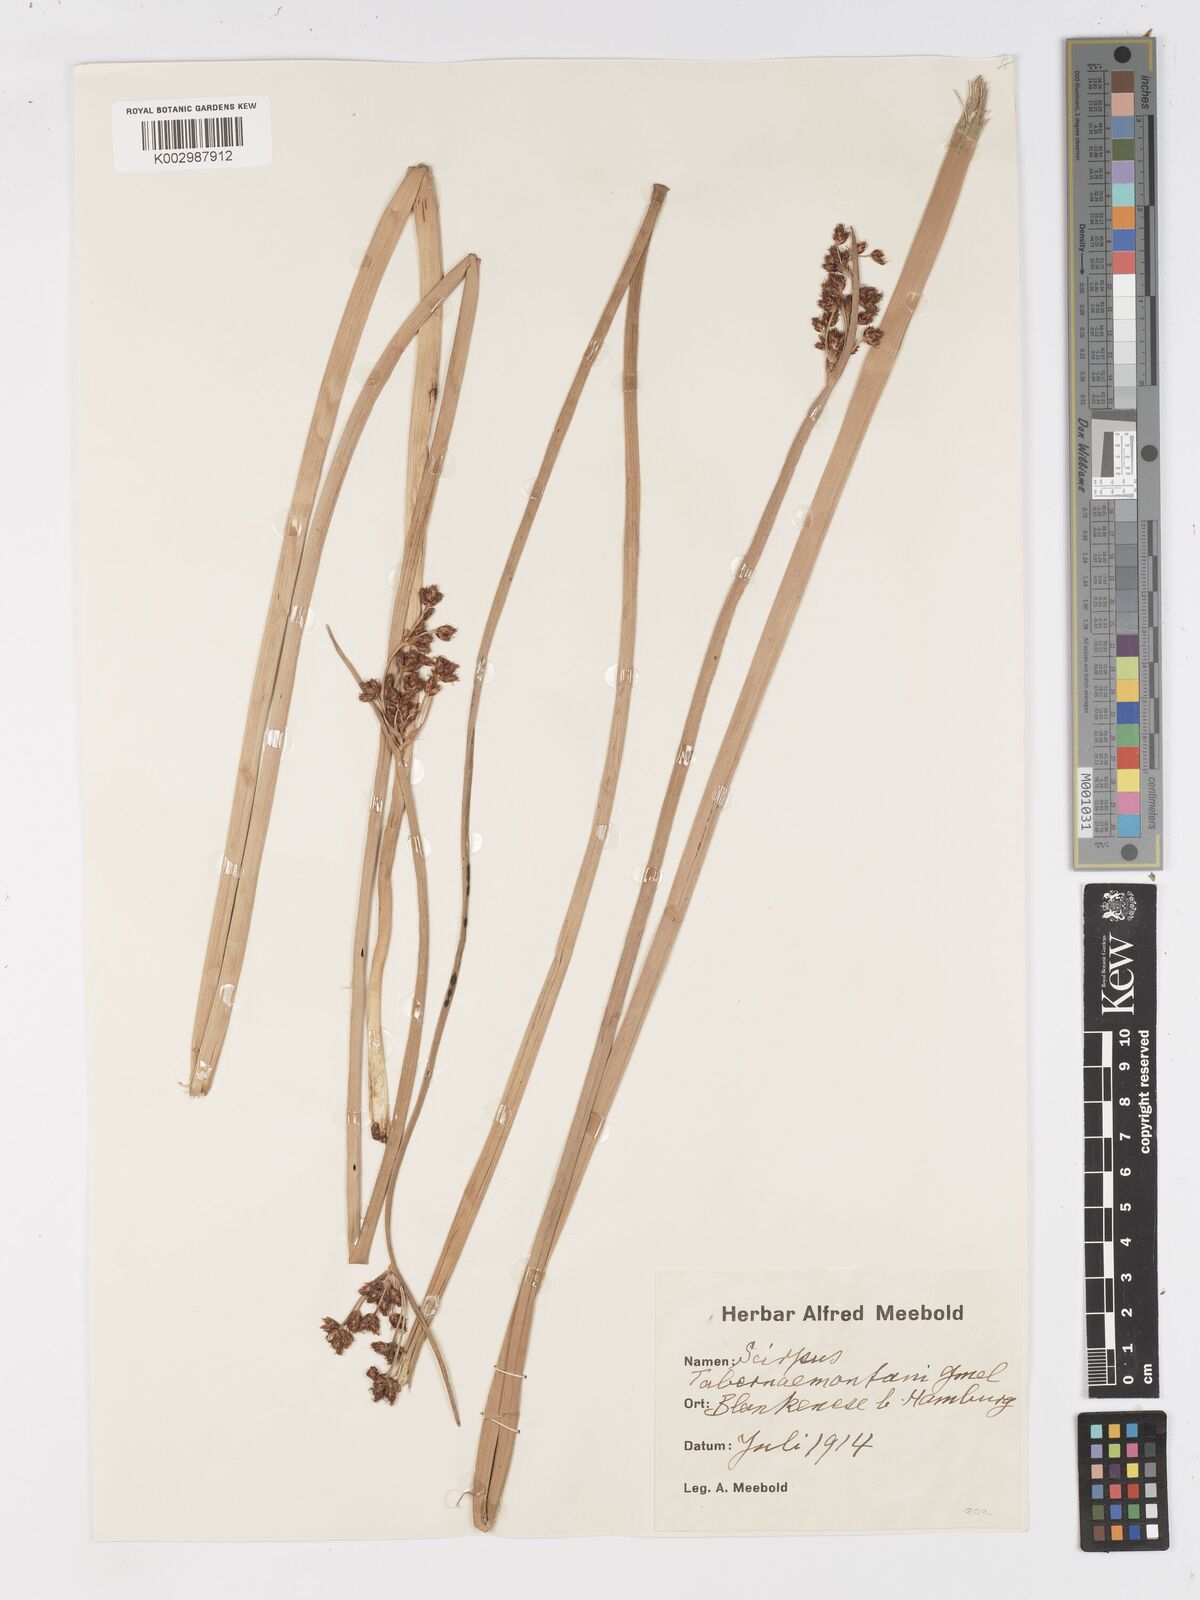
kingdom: Plantae
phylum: Tracheophyta
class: Liliopsida
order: Poales
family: Cyperaceae
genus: Schoenoplectus
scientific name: Schoenoplectus tabernaemontani
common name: Grey club-rush
